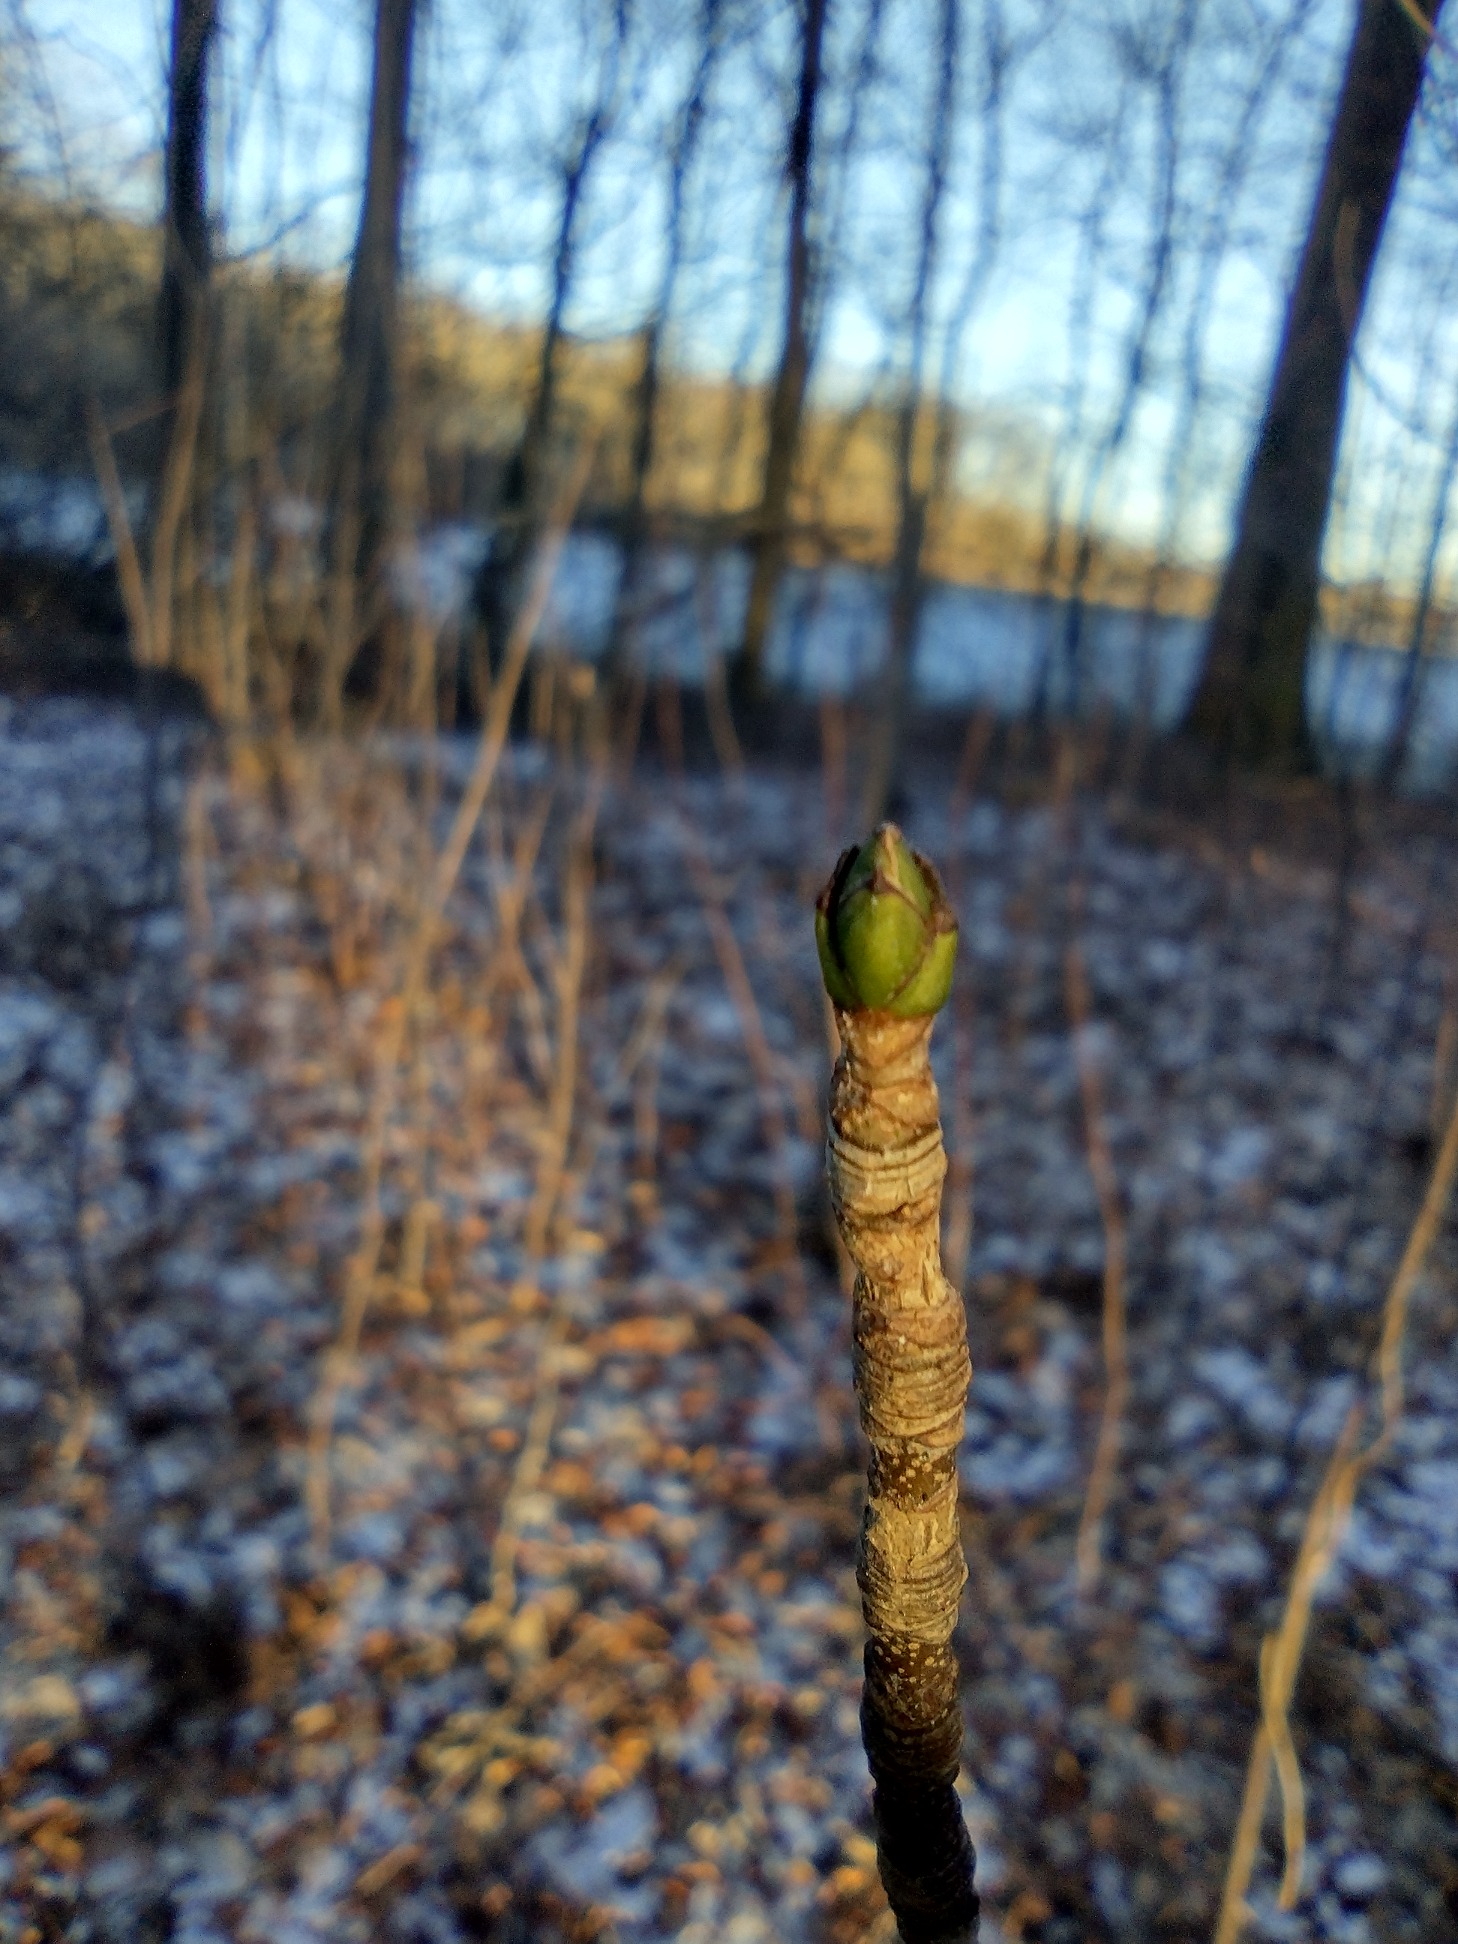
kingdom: Plantae
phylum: Tracheophyta
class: Magnoliopsida
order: Sapindales
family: Sapindaceae
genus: Acer
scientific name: Acer pseudoplatanus
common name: Ahorn
